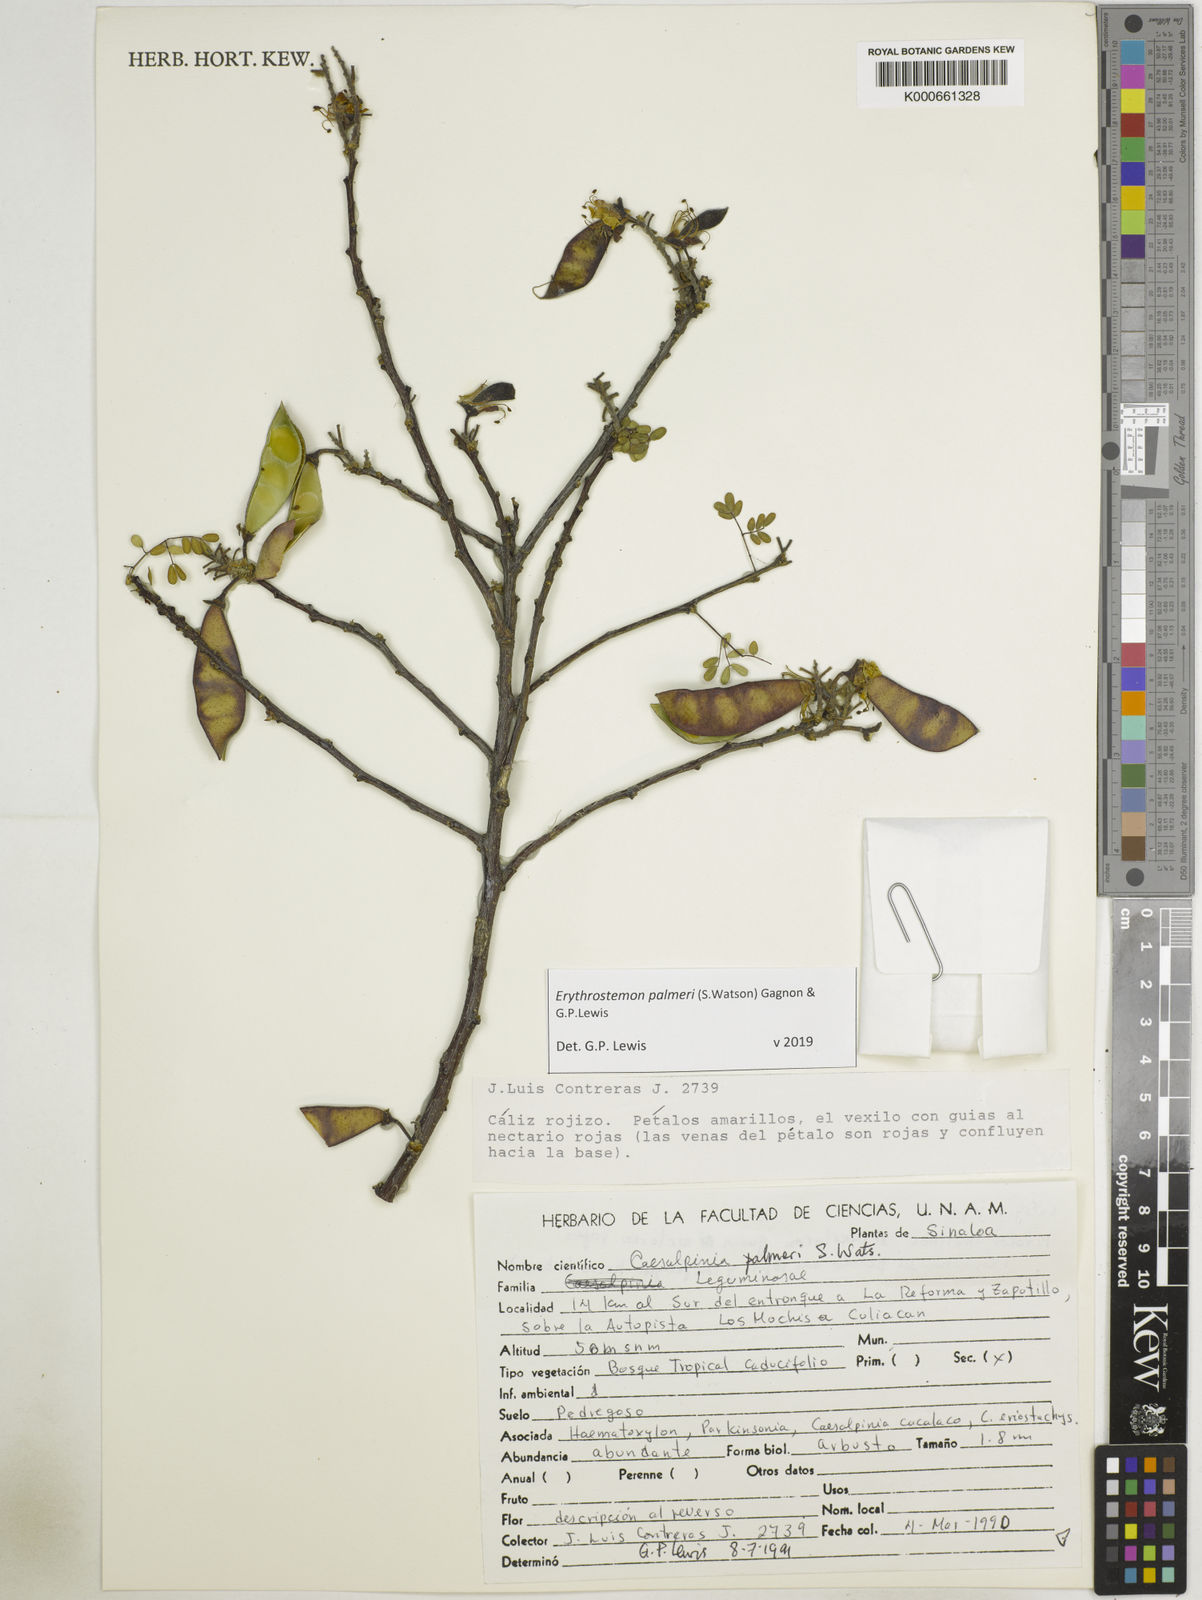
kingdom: Plantae
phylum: Tracheophyta
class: Magnoliopsida
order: Fabales
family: Fabaceae
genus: Erythrostemon
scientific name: Erythrostemon palmeri
